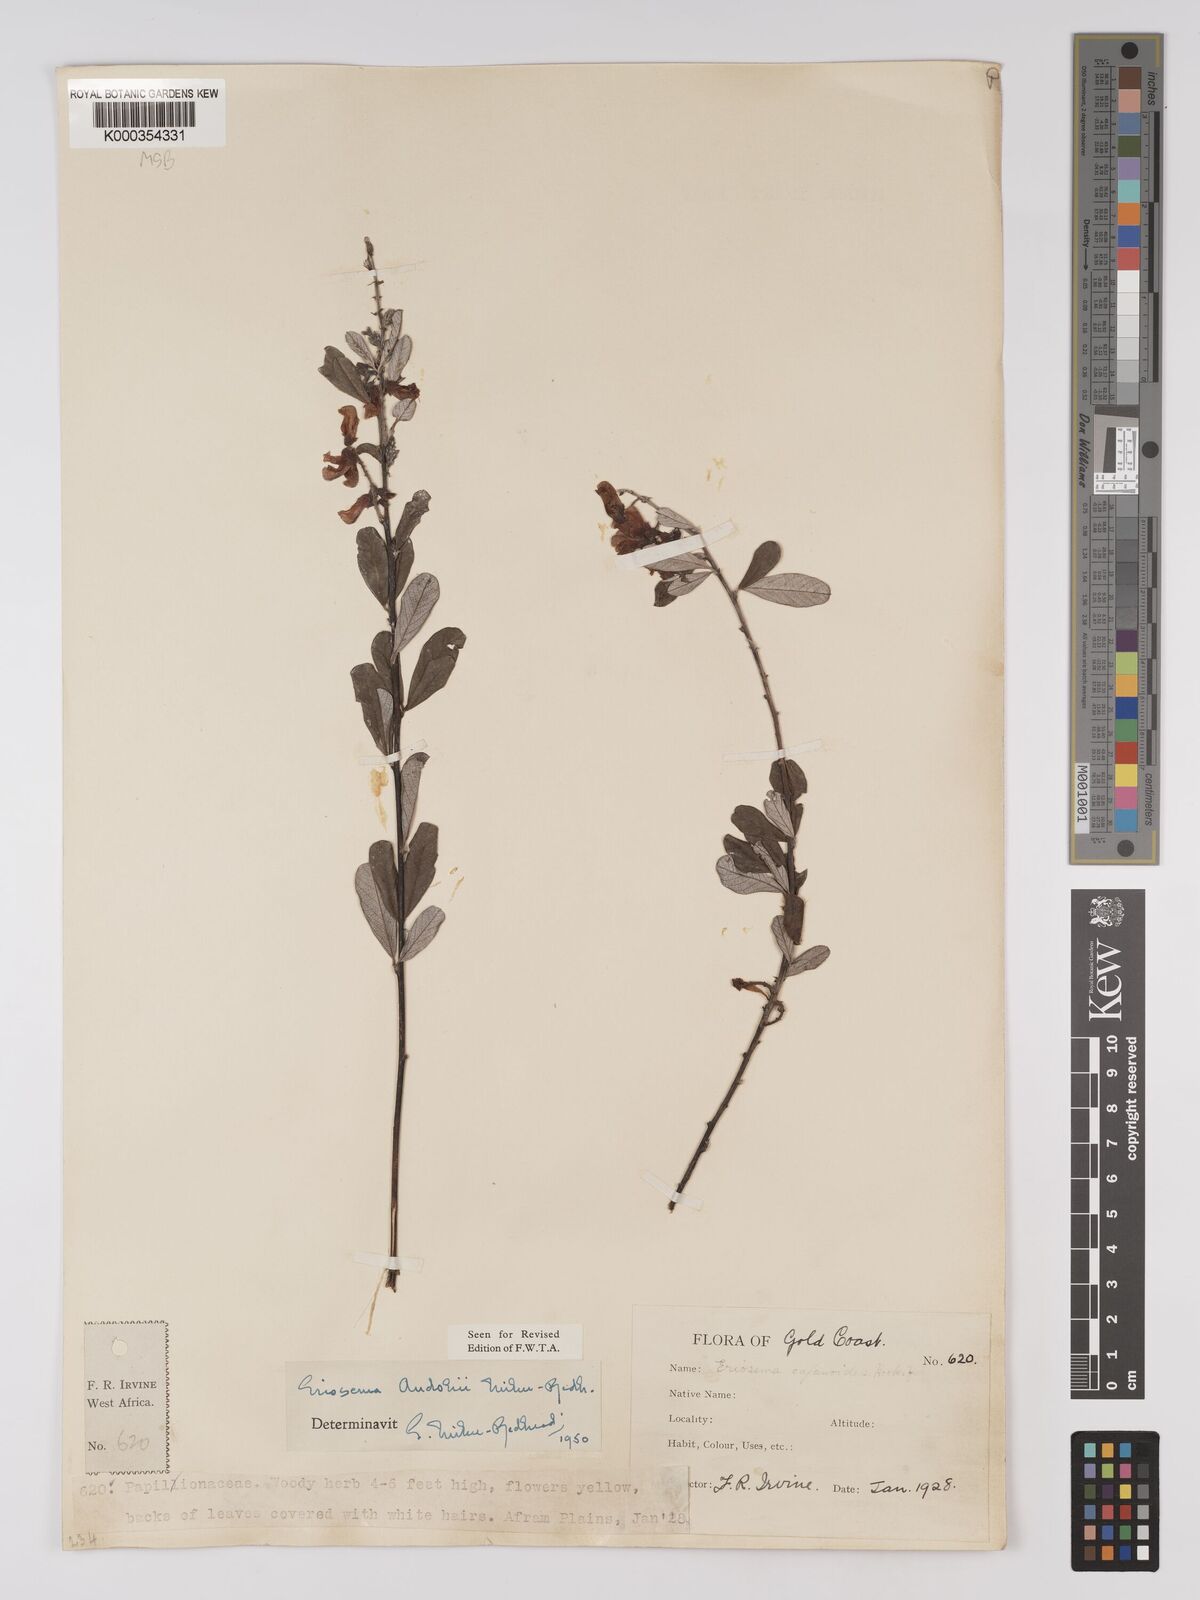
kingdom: Plantae
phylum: Tracheophyta
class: Magnoliopsida
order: Fabales
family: Fabaceae
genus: Eriosema
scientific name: Eriosema andohii
